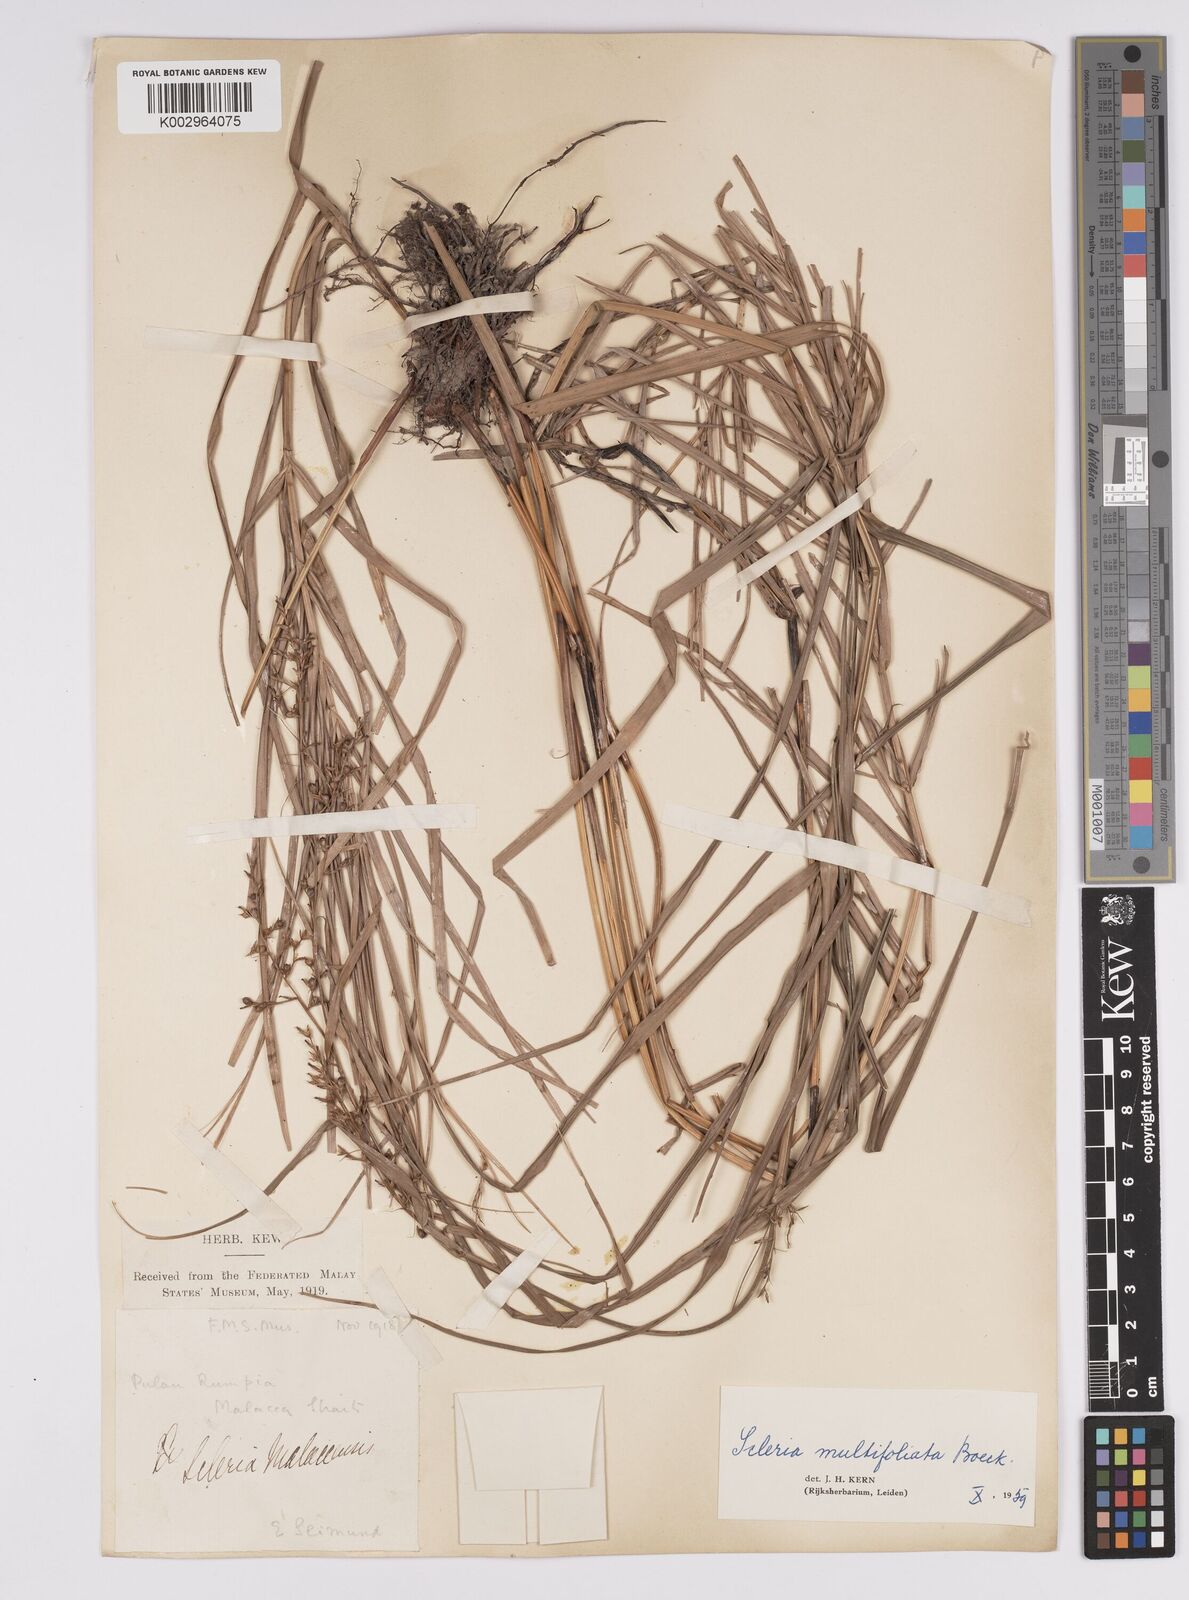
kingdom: Plantae
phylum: Tracheophyta
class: Liliopsida
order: Poales
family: Cyperaceae
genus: Scleria
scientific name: Scleria purpurascens
